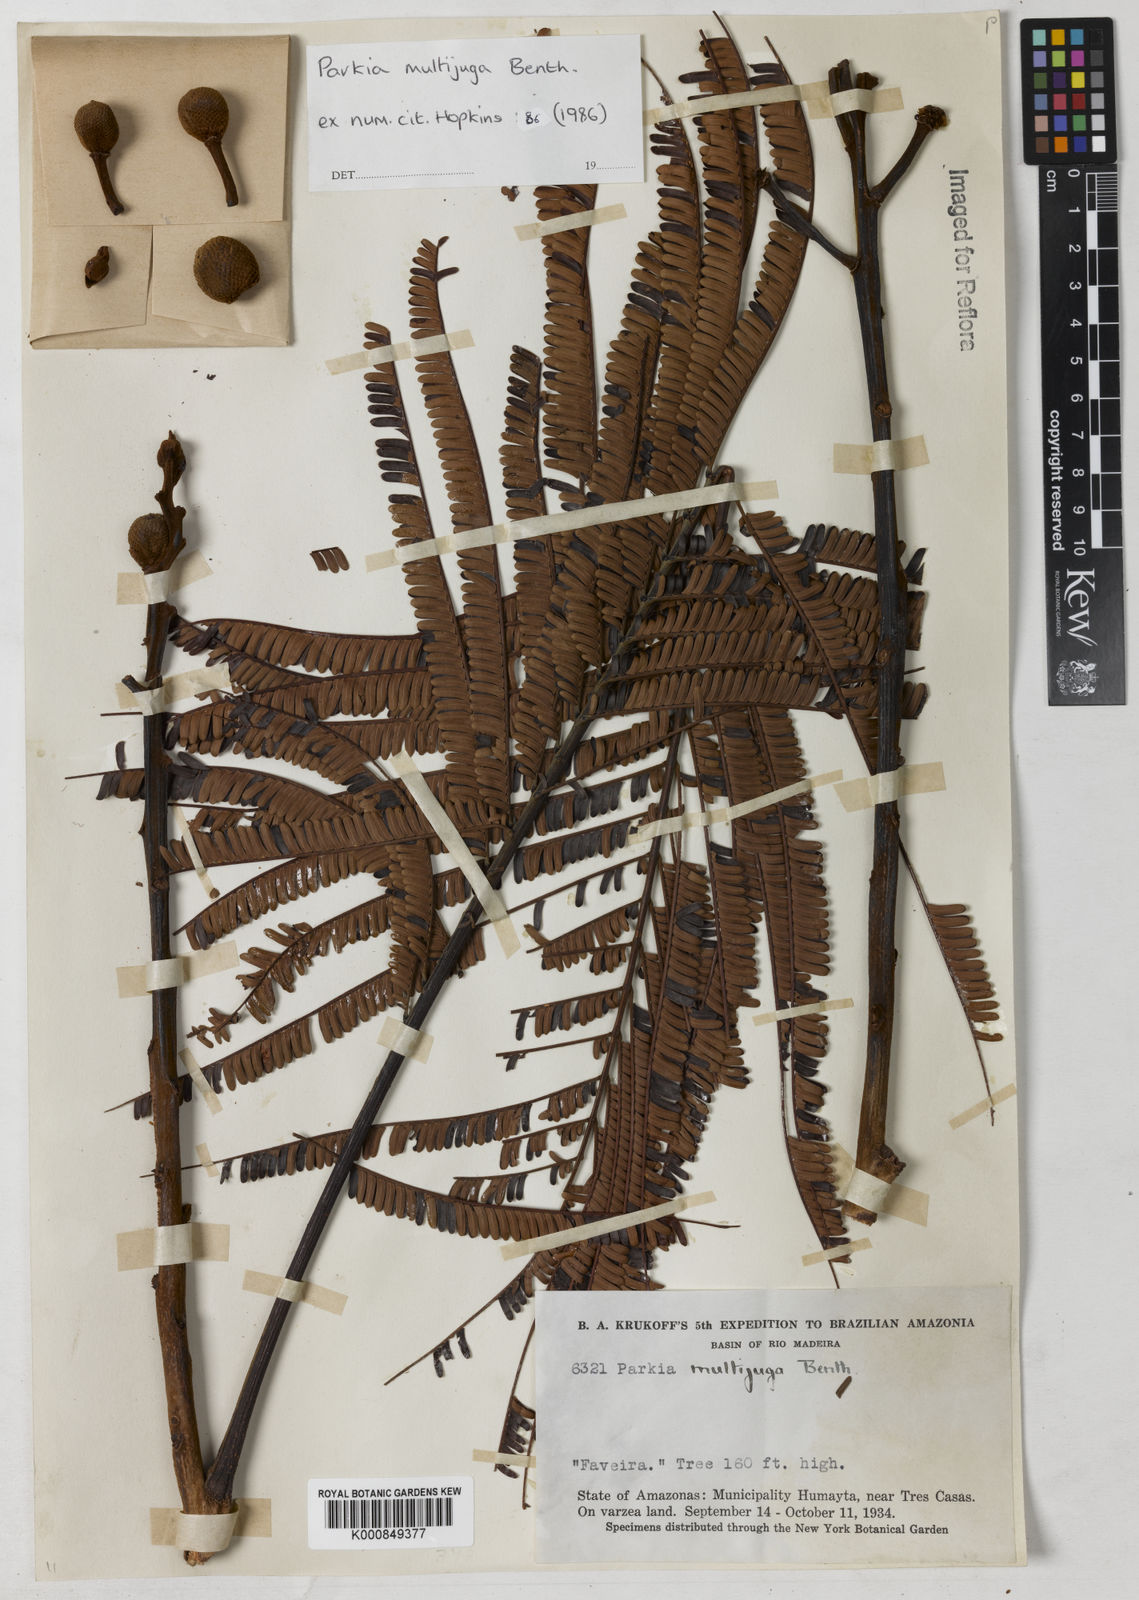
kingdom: Plantae
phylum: Tracheophyta
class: Magnoliopsida
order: Fabales
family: Fabaceae
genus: Parkia
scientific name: Parkia multijuga
